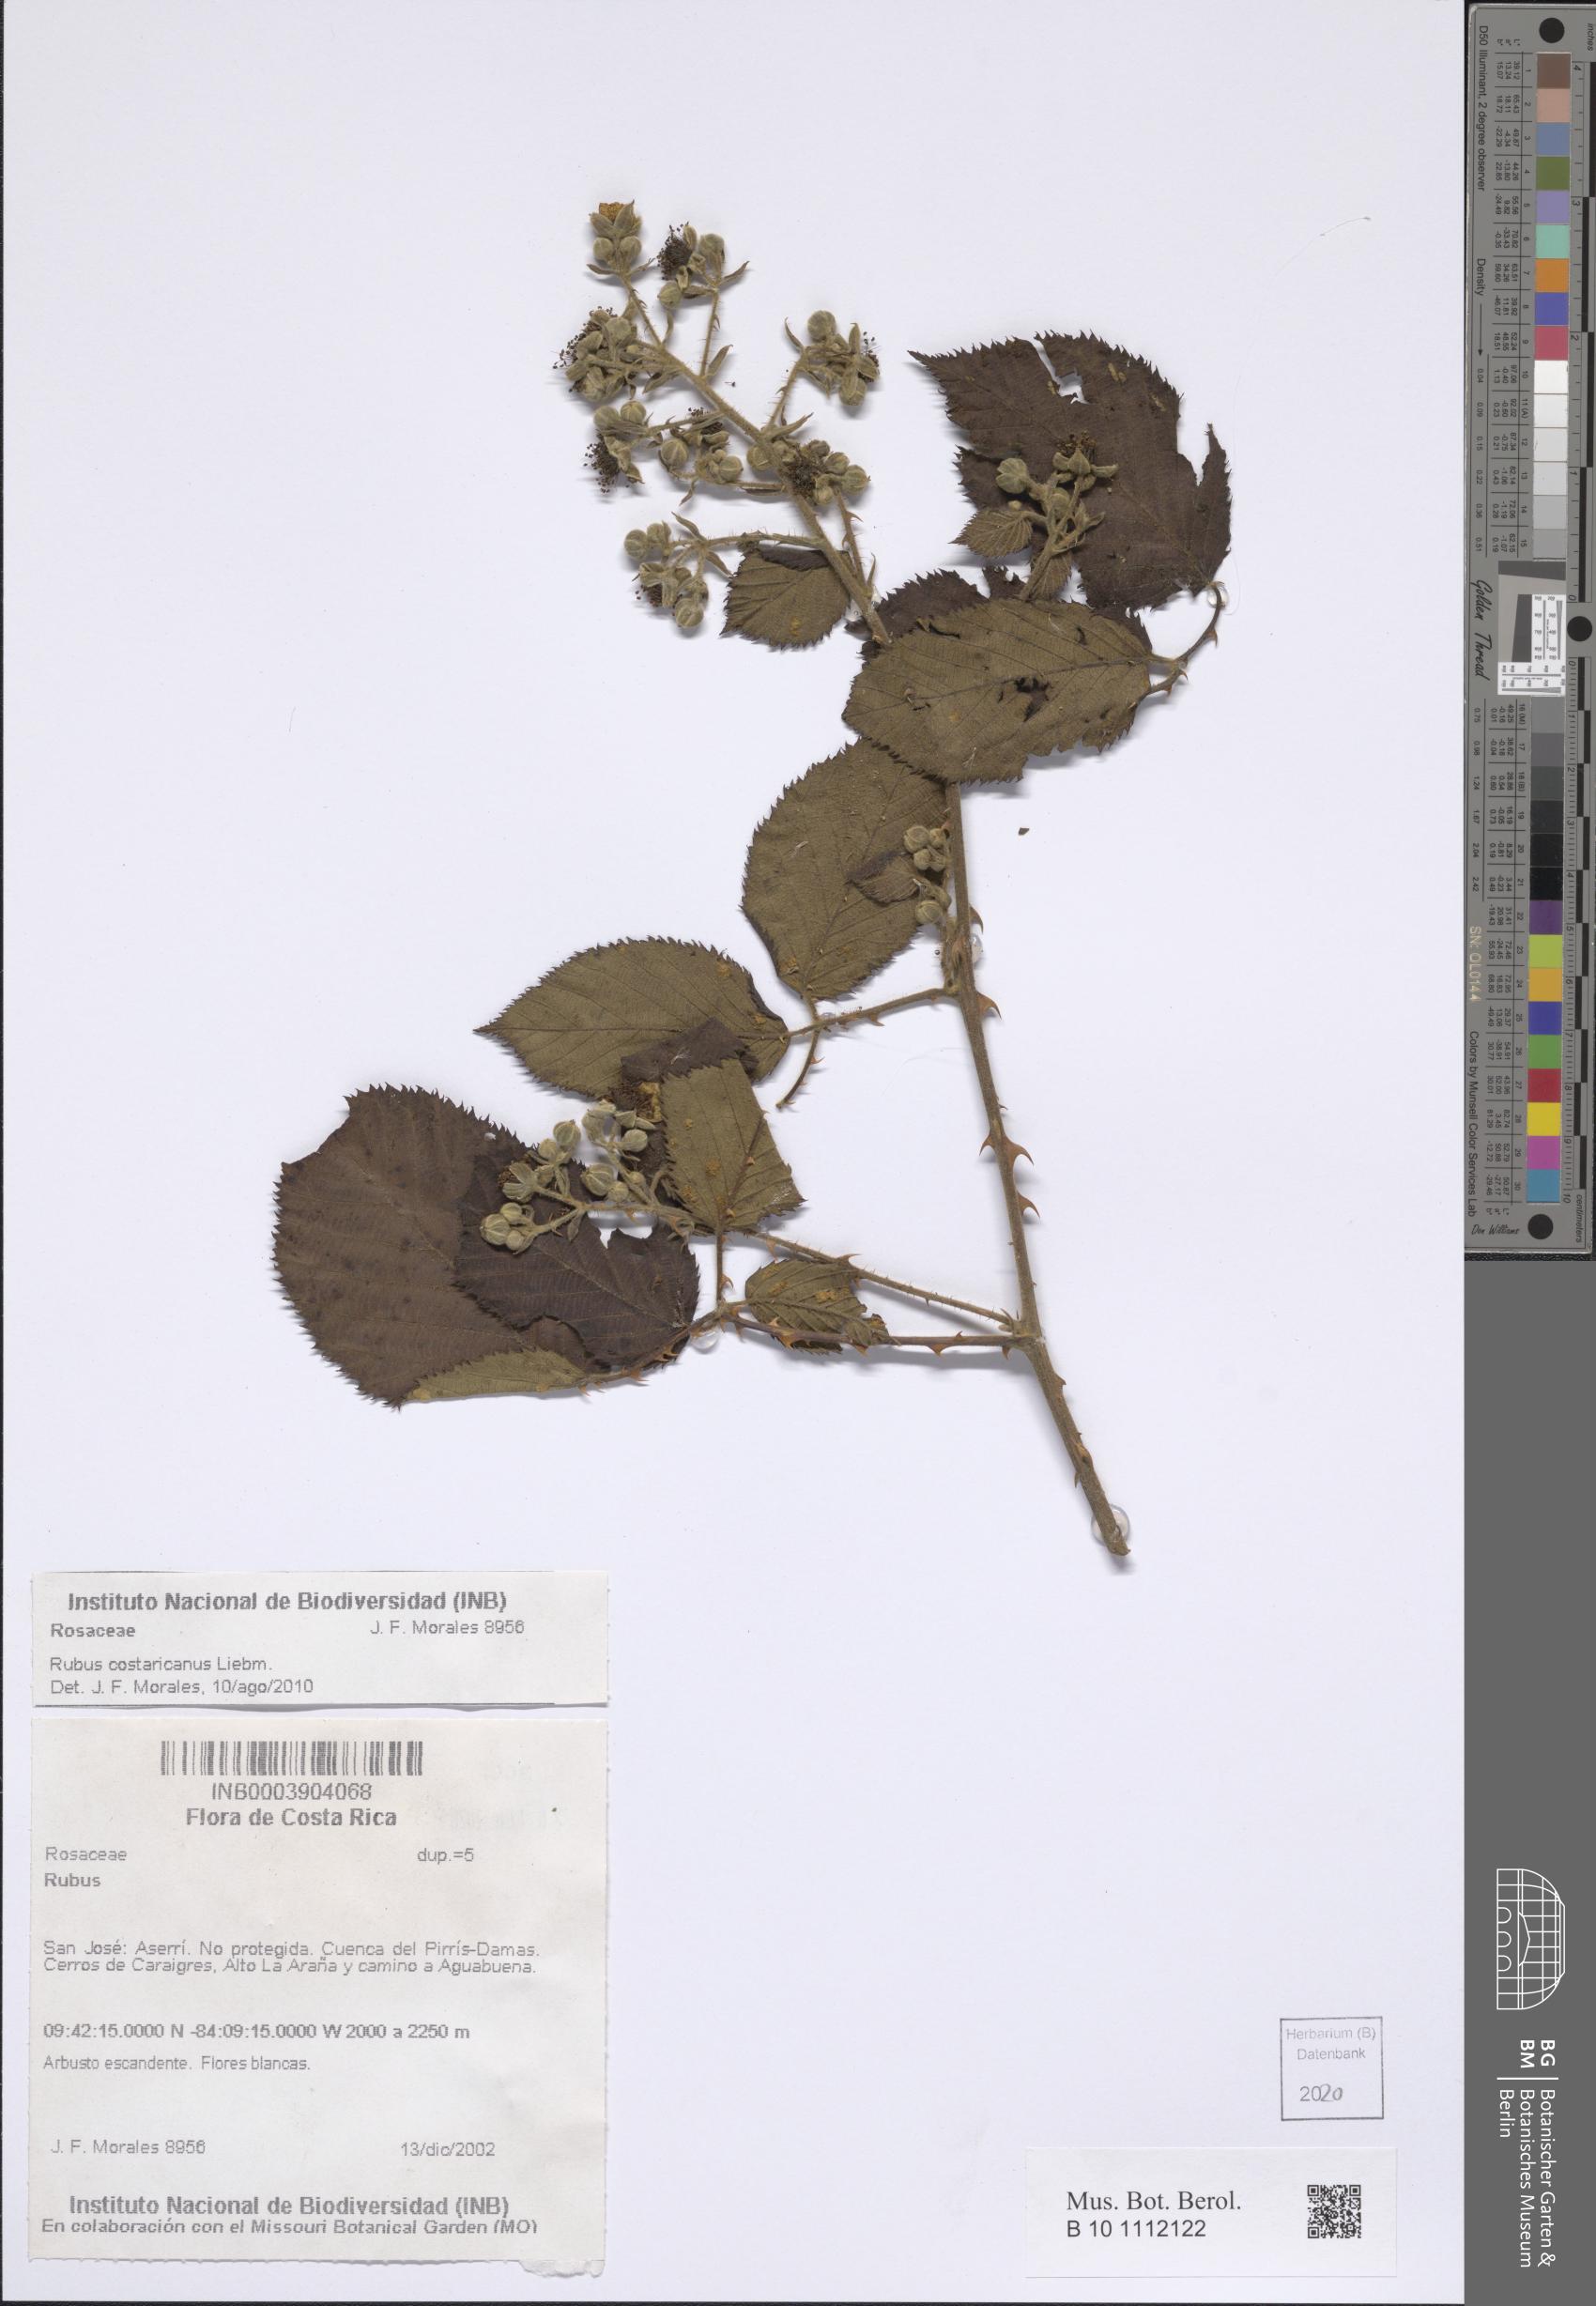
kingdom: Plantae
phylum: Tracheophyta
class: Magnoliopsida
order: Rosales
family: Rosaceae
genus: Rubus
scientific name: Rubus costaricanus
